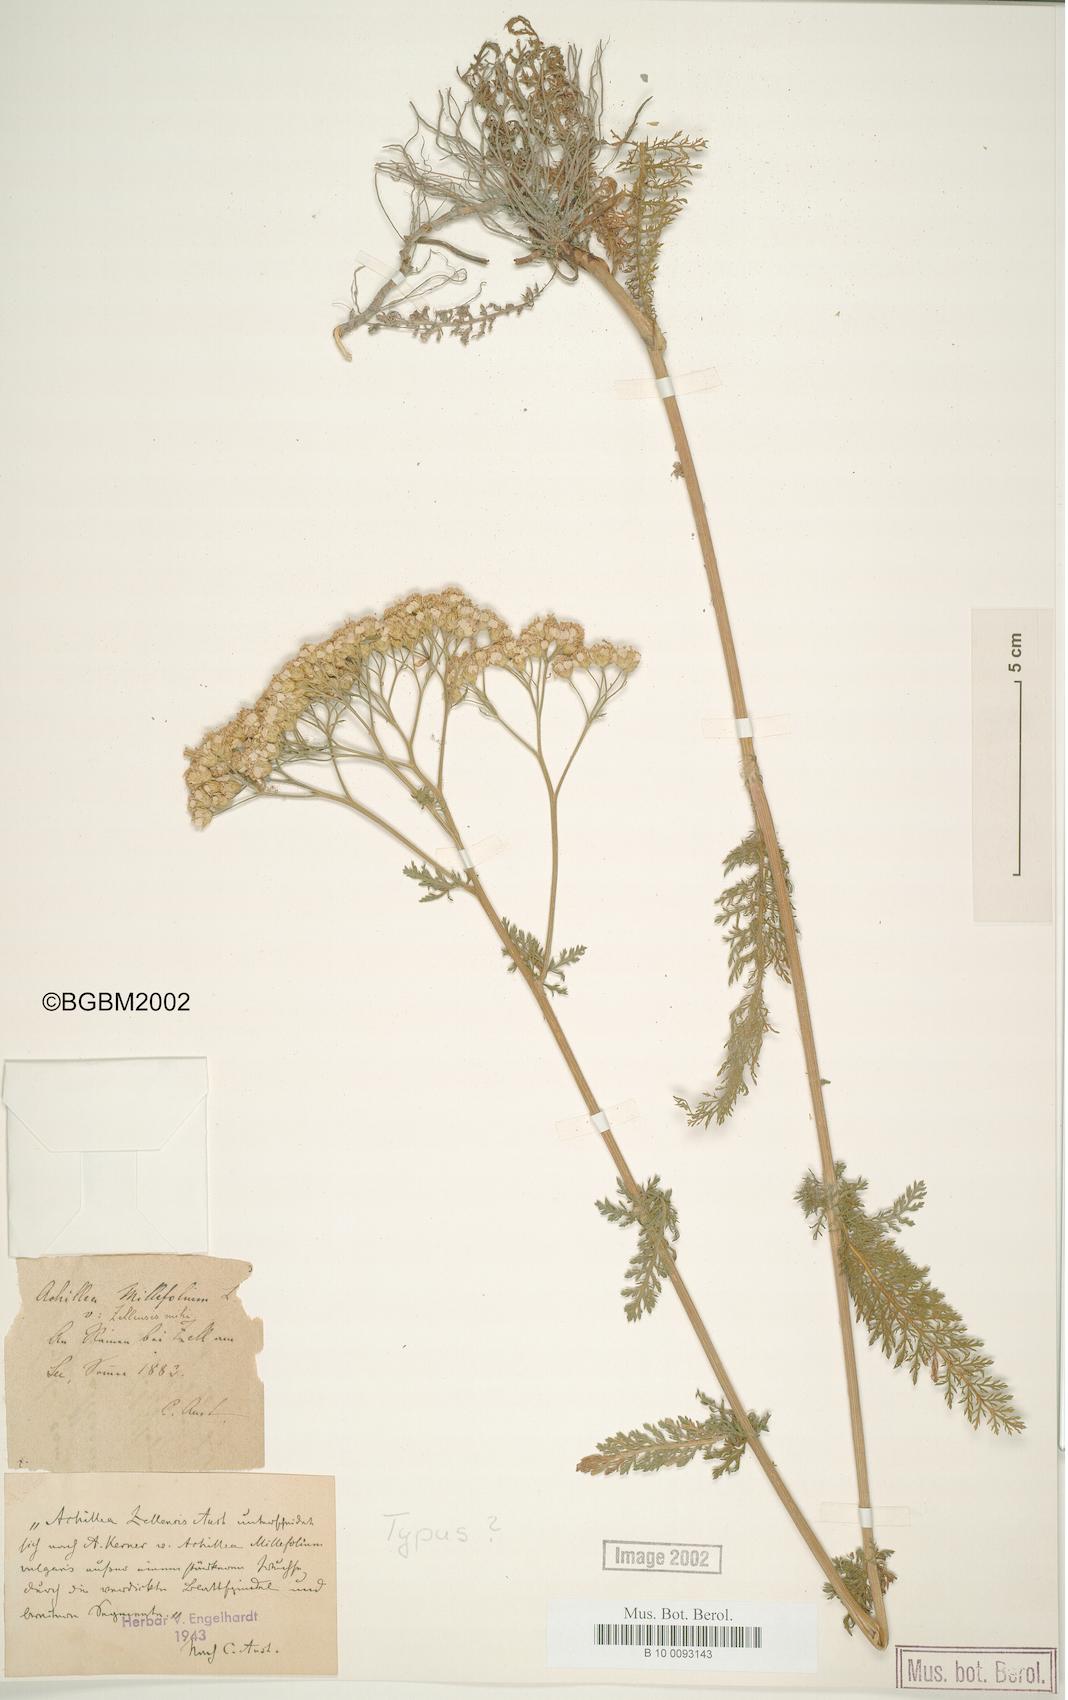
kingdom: Plantae
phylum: Tracheophyta
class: Magnoliopsida
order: Asterales
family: Asteraceae
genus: Achillea
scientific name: Achillea millefolium
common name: Yarrow
